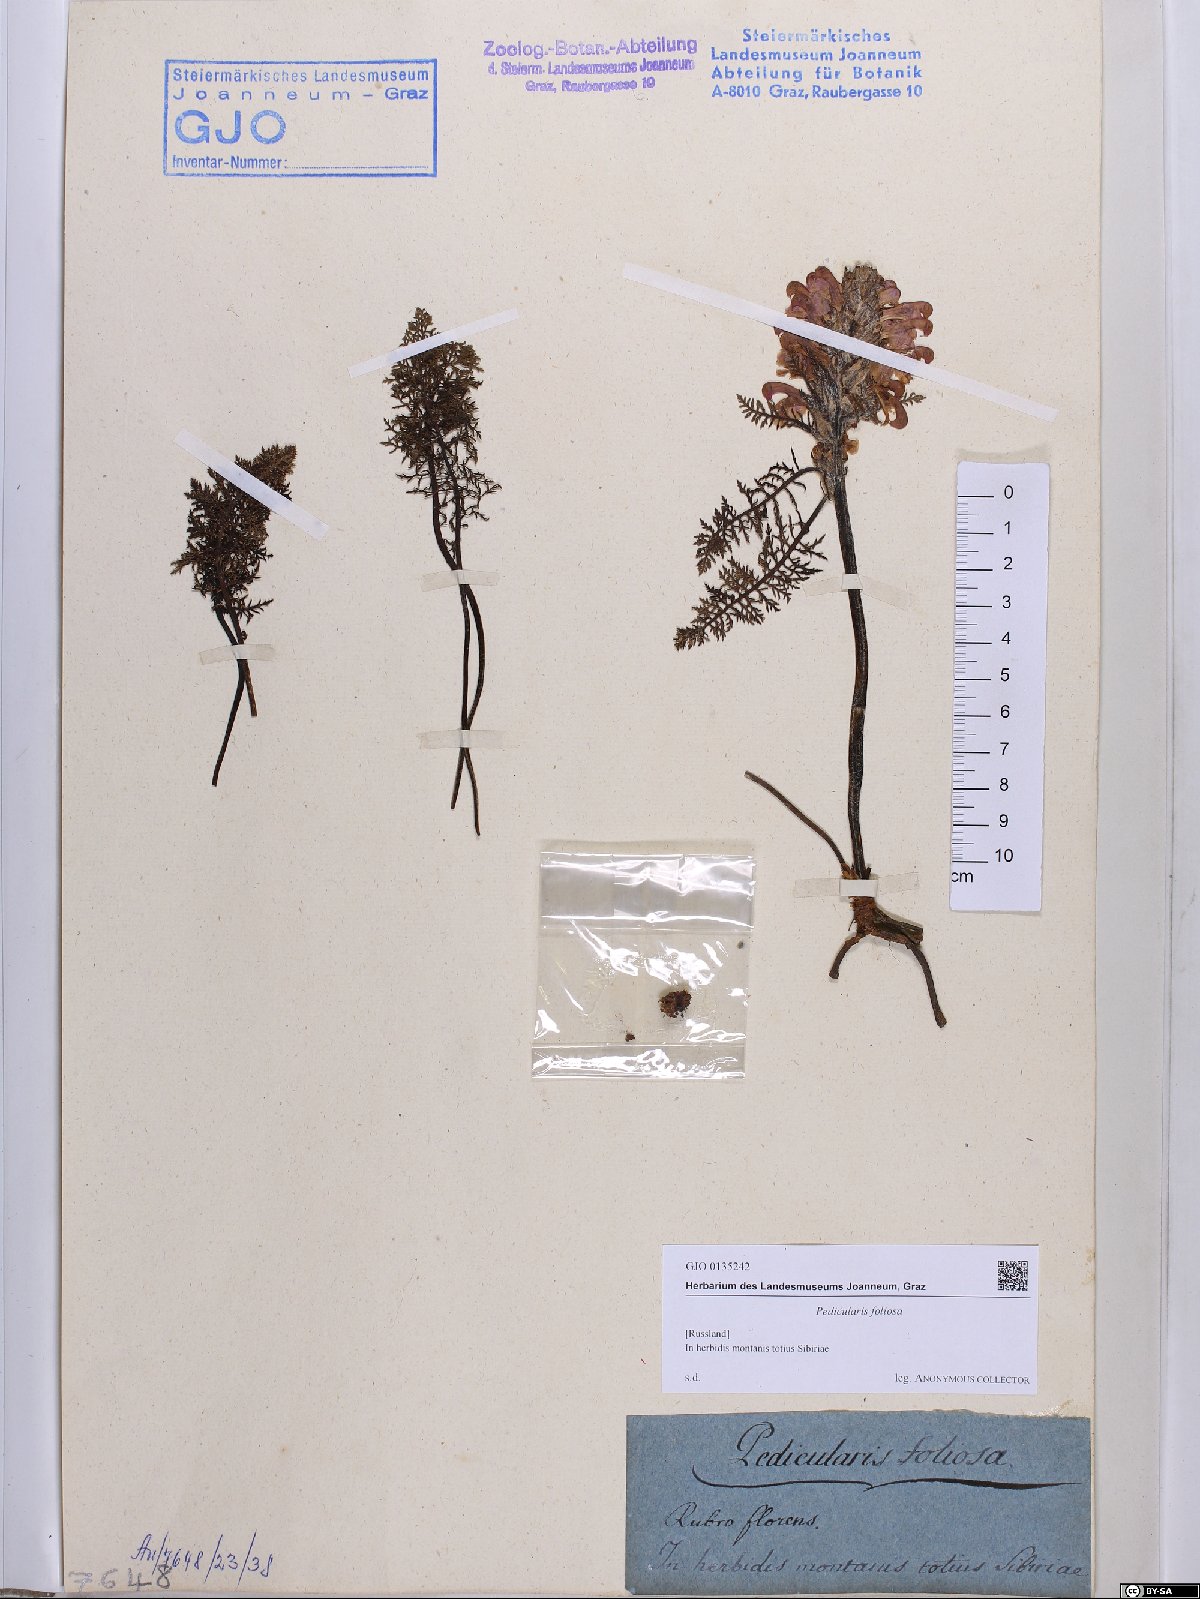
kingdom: Plantae
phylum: Tracheophyta
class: Magnoliopsida
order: Lamiales
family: Orobanchaceae
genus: Pedicularis
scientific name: Pedicularis foliosa
